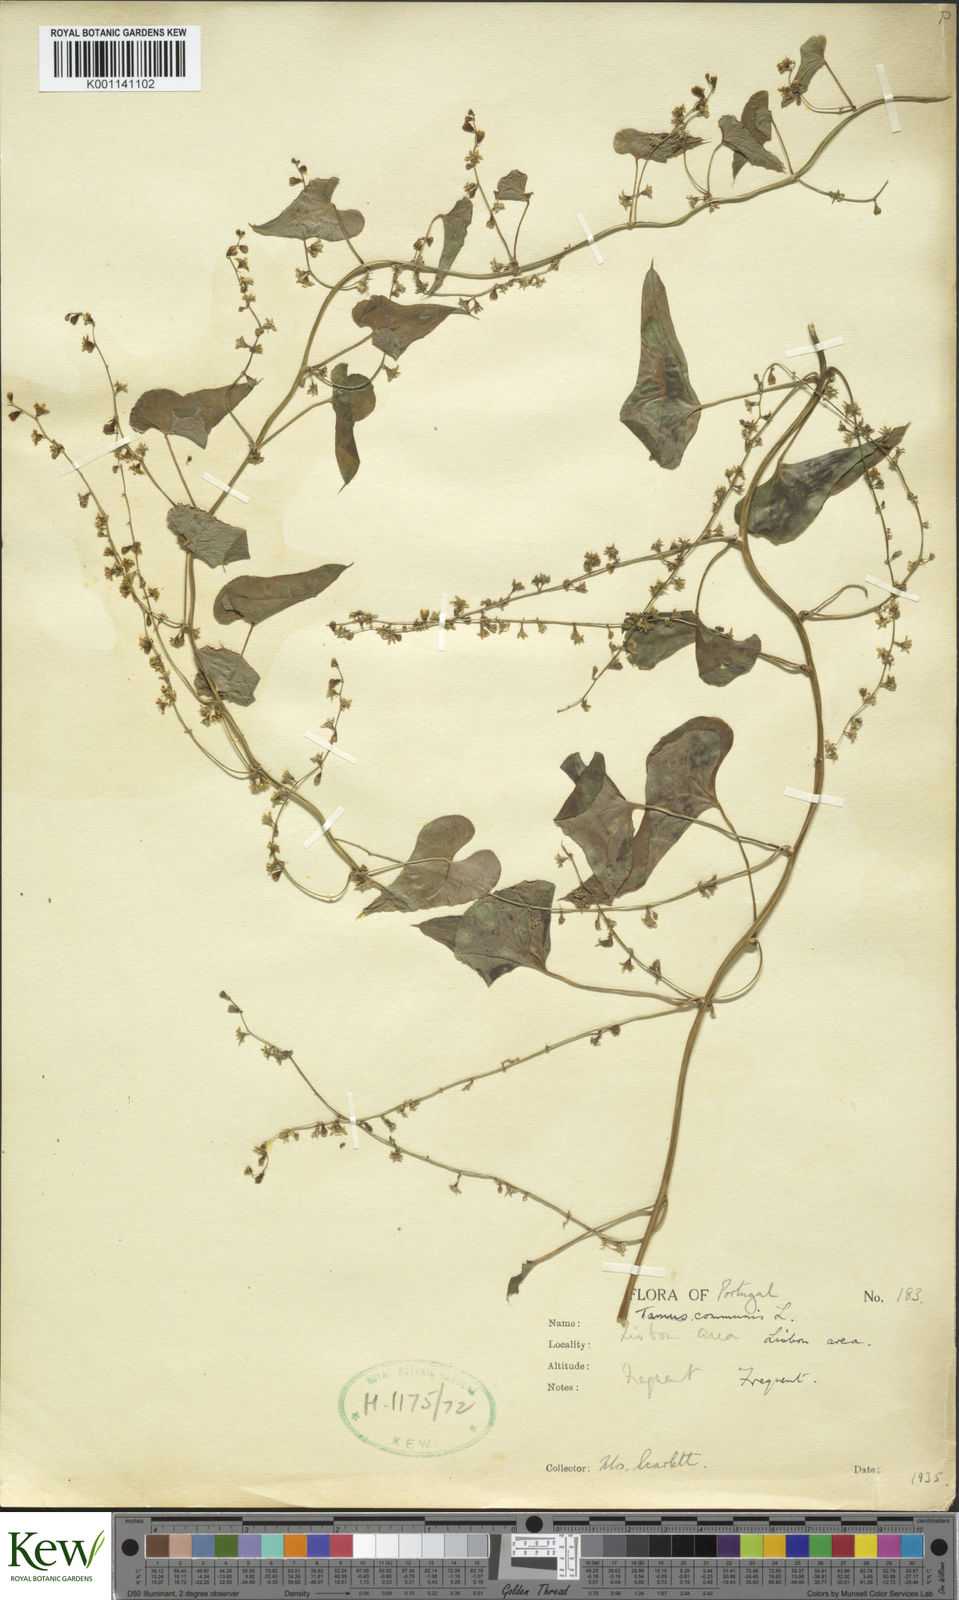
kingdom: Plantae
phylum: Tracheophyta
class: Liliopsida
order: Dioscoreales
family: Dioscoreaceae
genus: Dioscorea
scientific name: Dioscorea communis
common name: Black-bindweed
